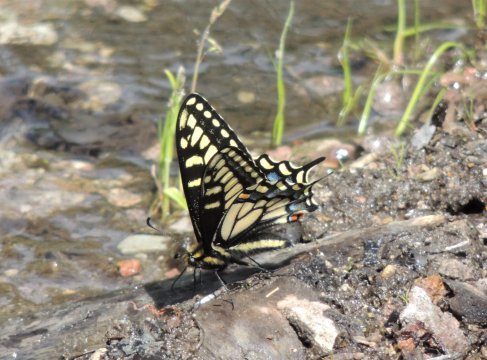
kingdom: Animalia
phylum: Arthropoda
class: Insecta
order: Lepidoptera
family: Papilionidae
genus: Papilio
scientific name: Papilio zelicaon
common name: Anise Swallowtail
